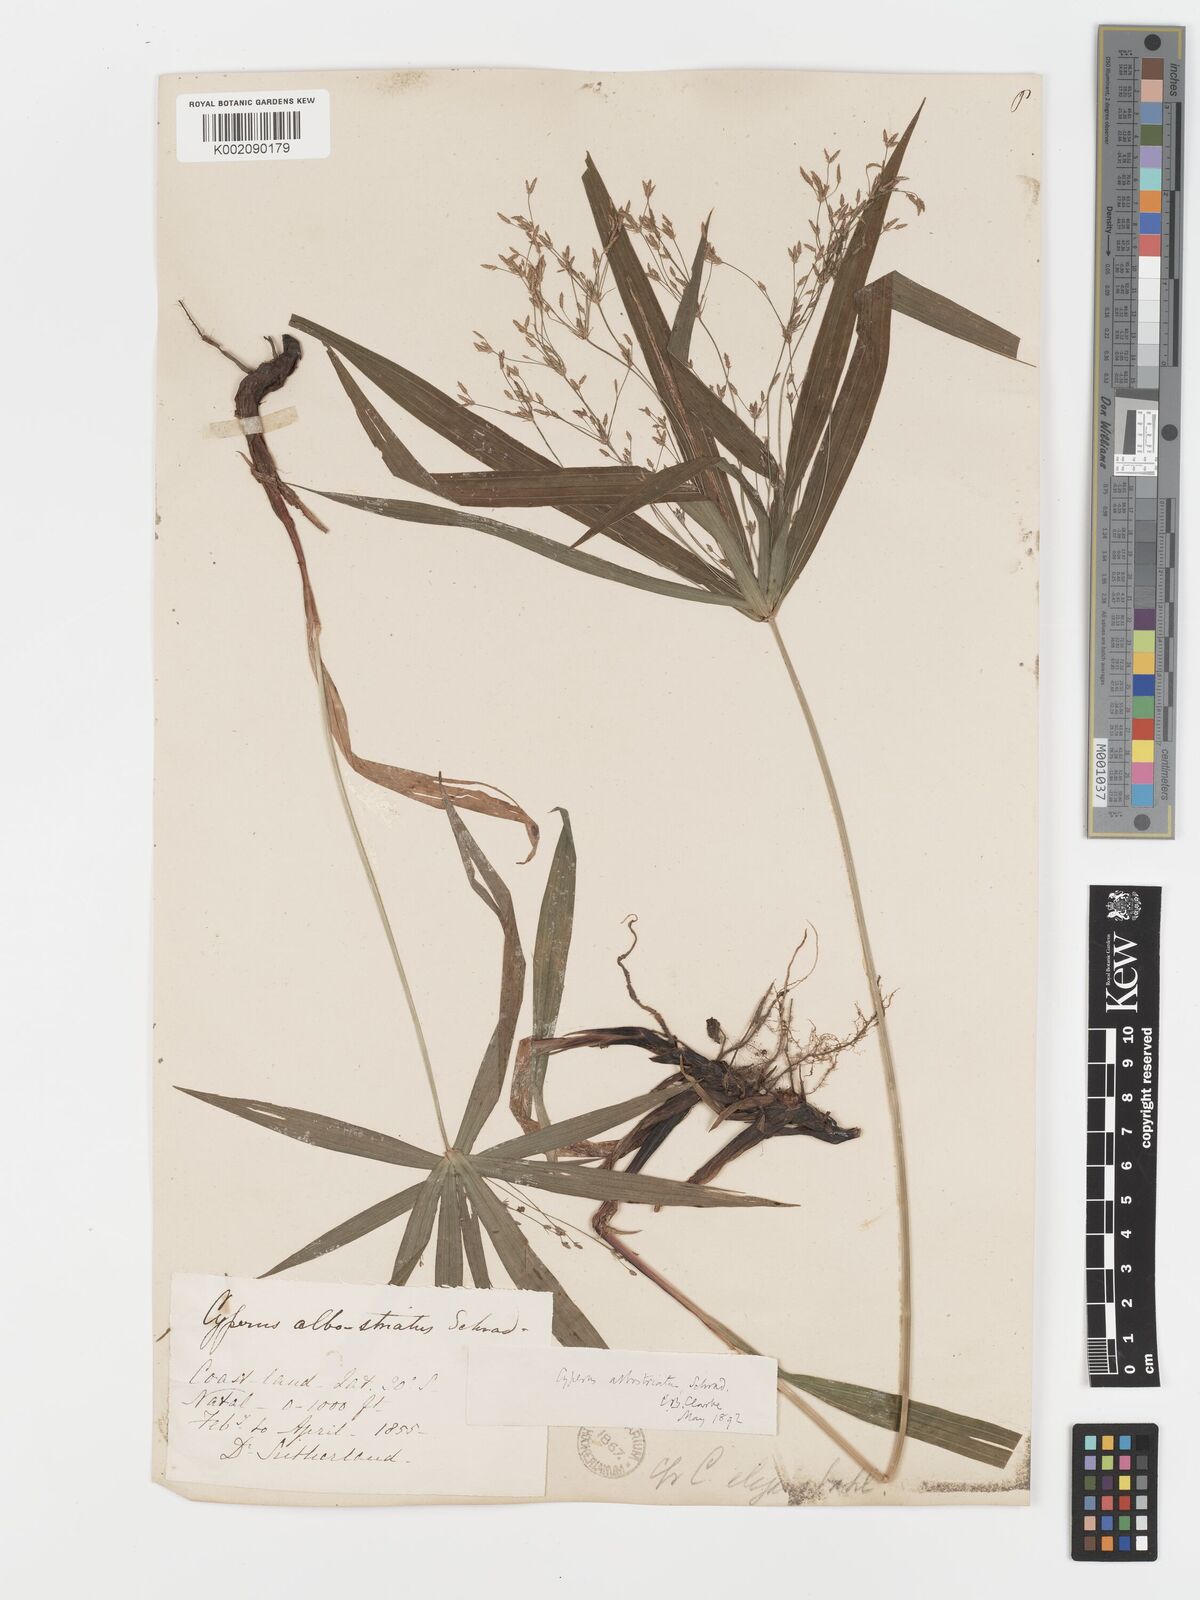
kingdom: Plantae
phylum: Tracheophyta
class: Liliopsida
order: Poales
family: Cyperaceae
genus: Cyperus
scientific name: Cyperus albostriatus
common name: Dwarf umbrella-grass
